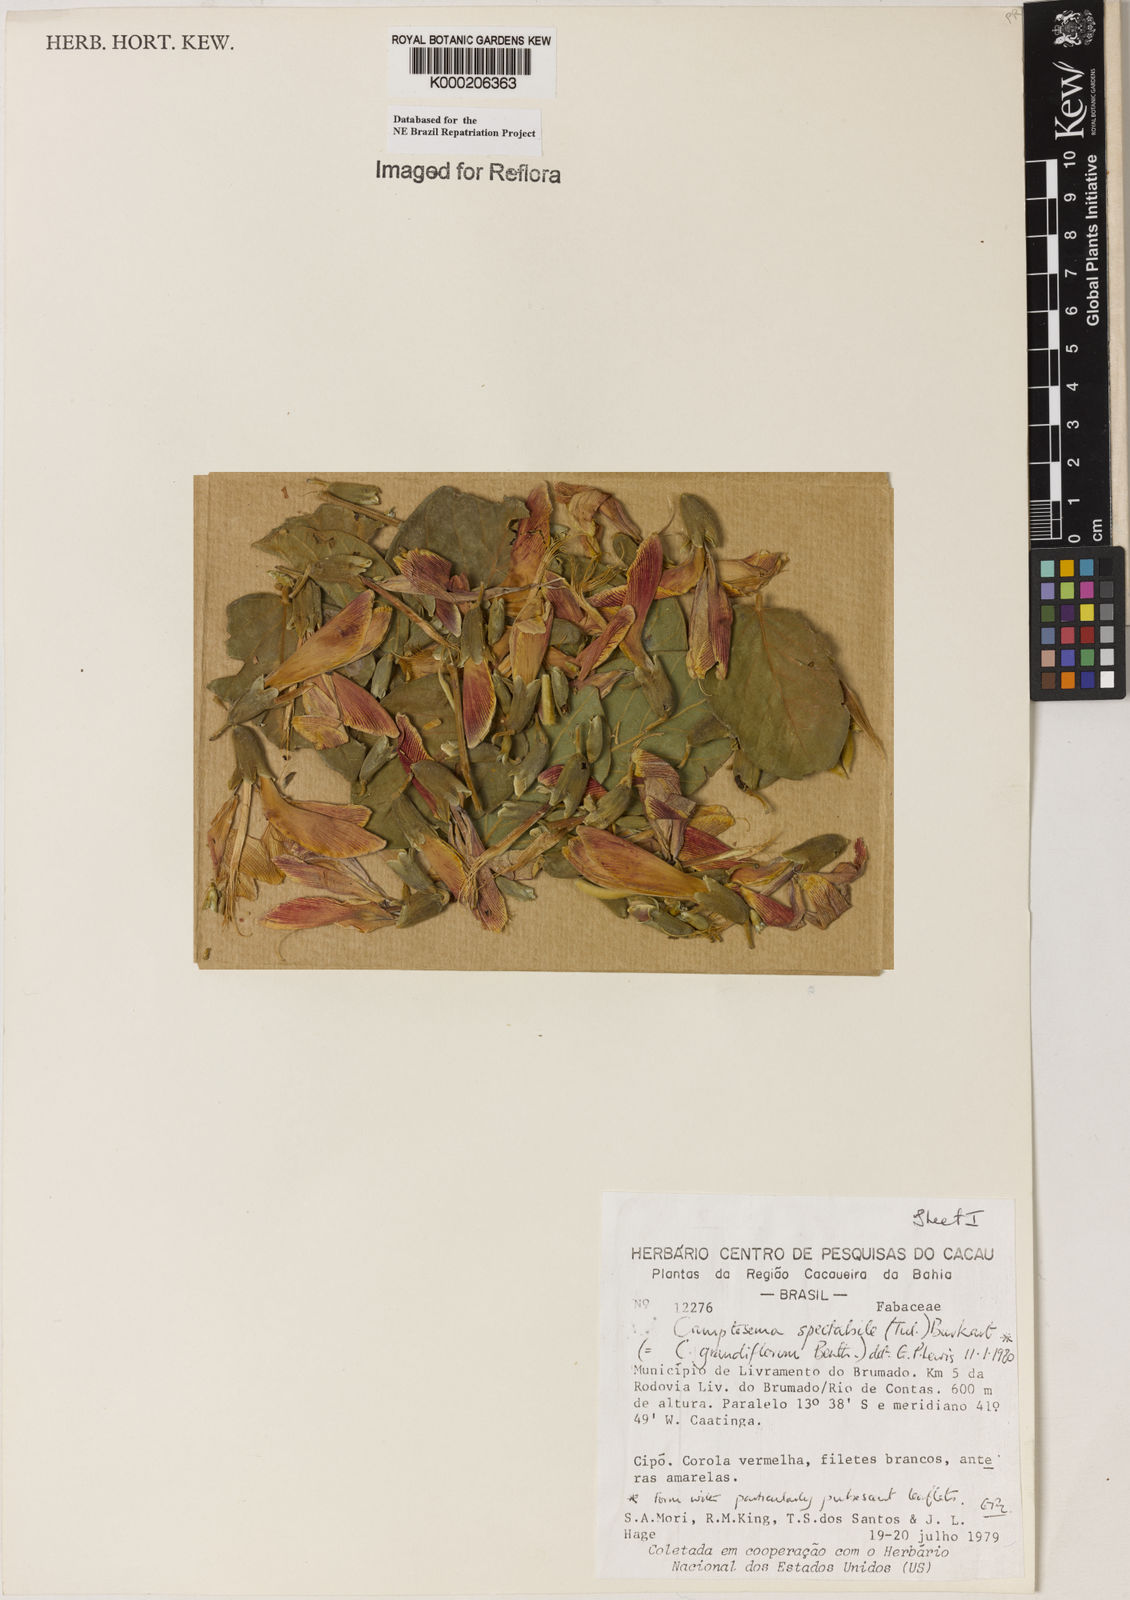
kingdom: Plantae
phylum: Tracheophyta
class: Magnoliopsida
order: Fabales
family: Fabaceae
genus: Camptosema
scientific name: Camptosema spectabile
